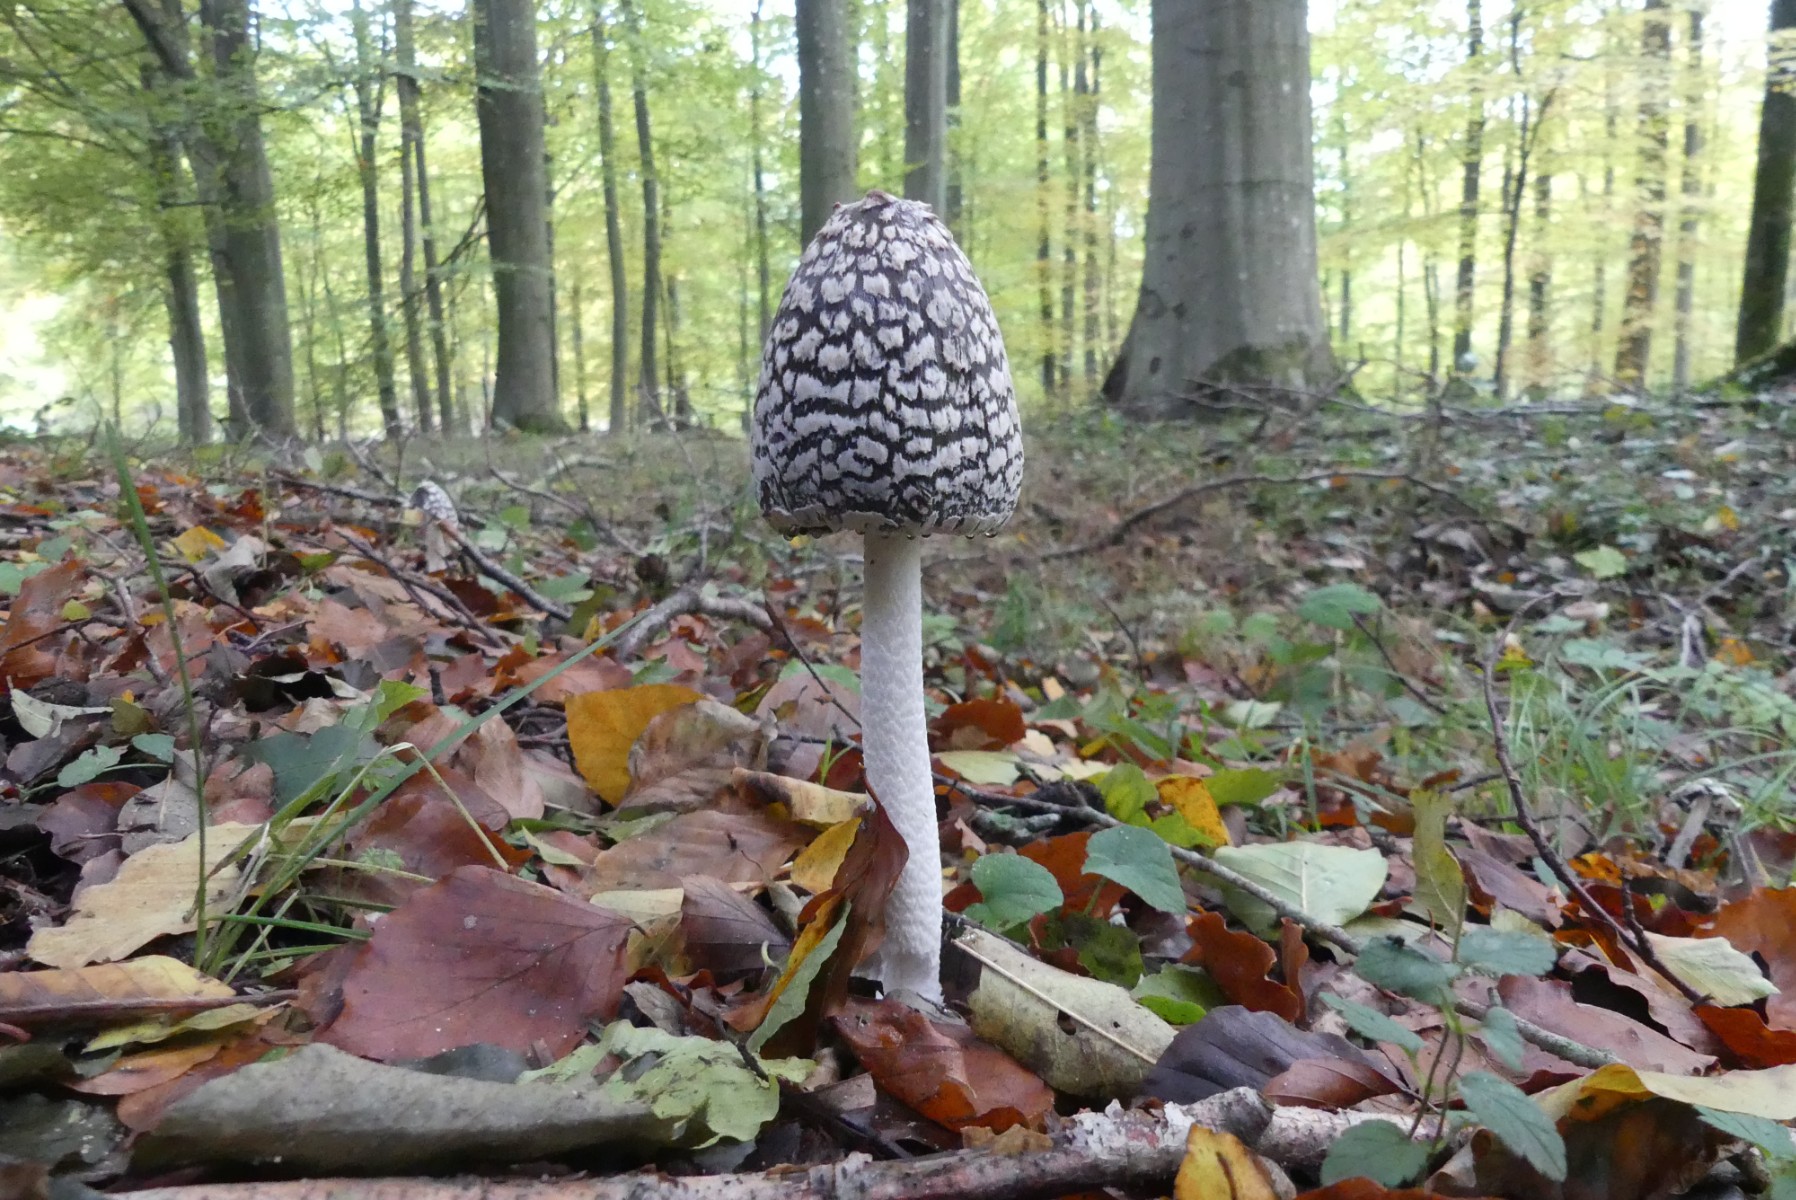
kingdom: Fungi
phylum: Basidiomycota
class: Agaricomycetes
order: Agaricales
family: Psathyrellaceae
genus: Coprinopsis
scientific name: Coprinopsis picacea
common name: skade-blækhat
